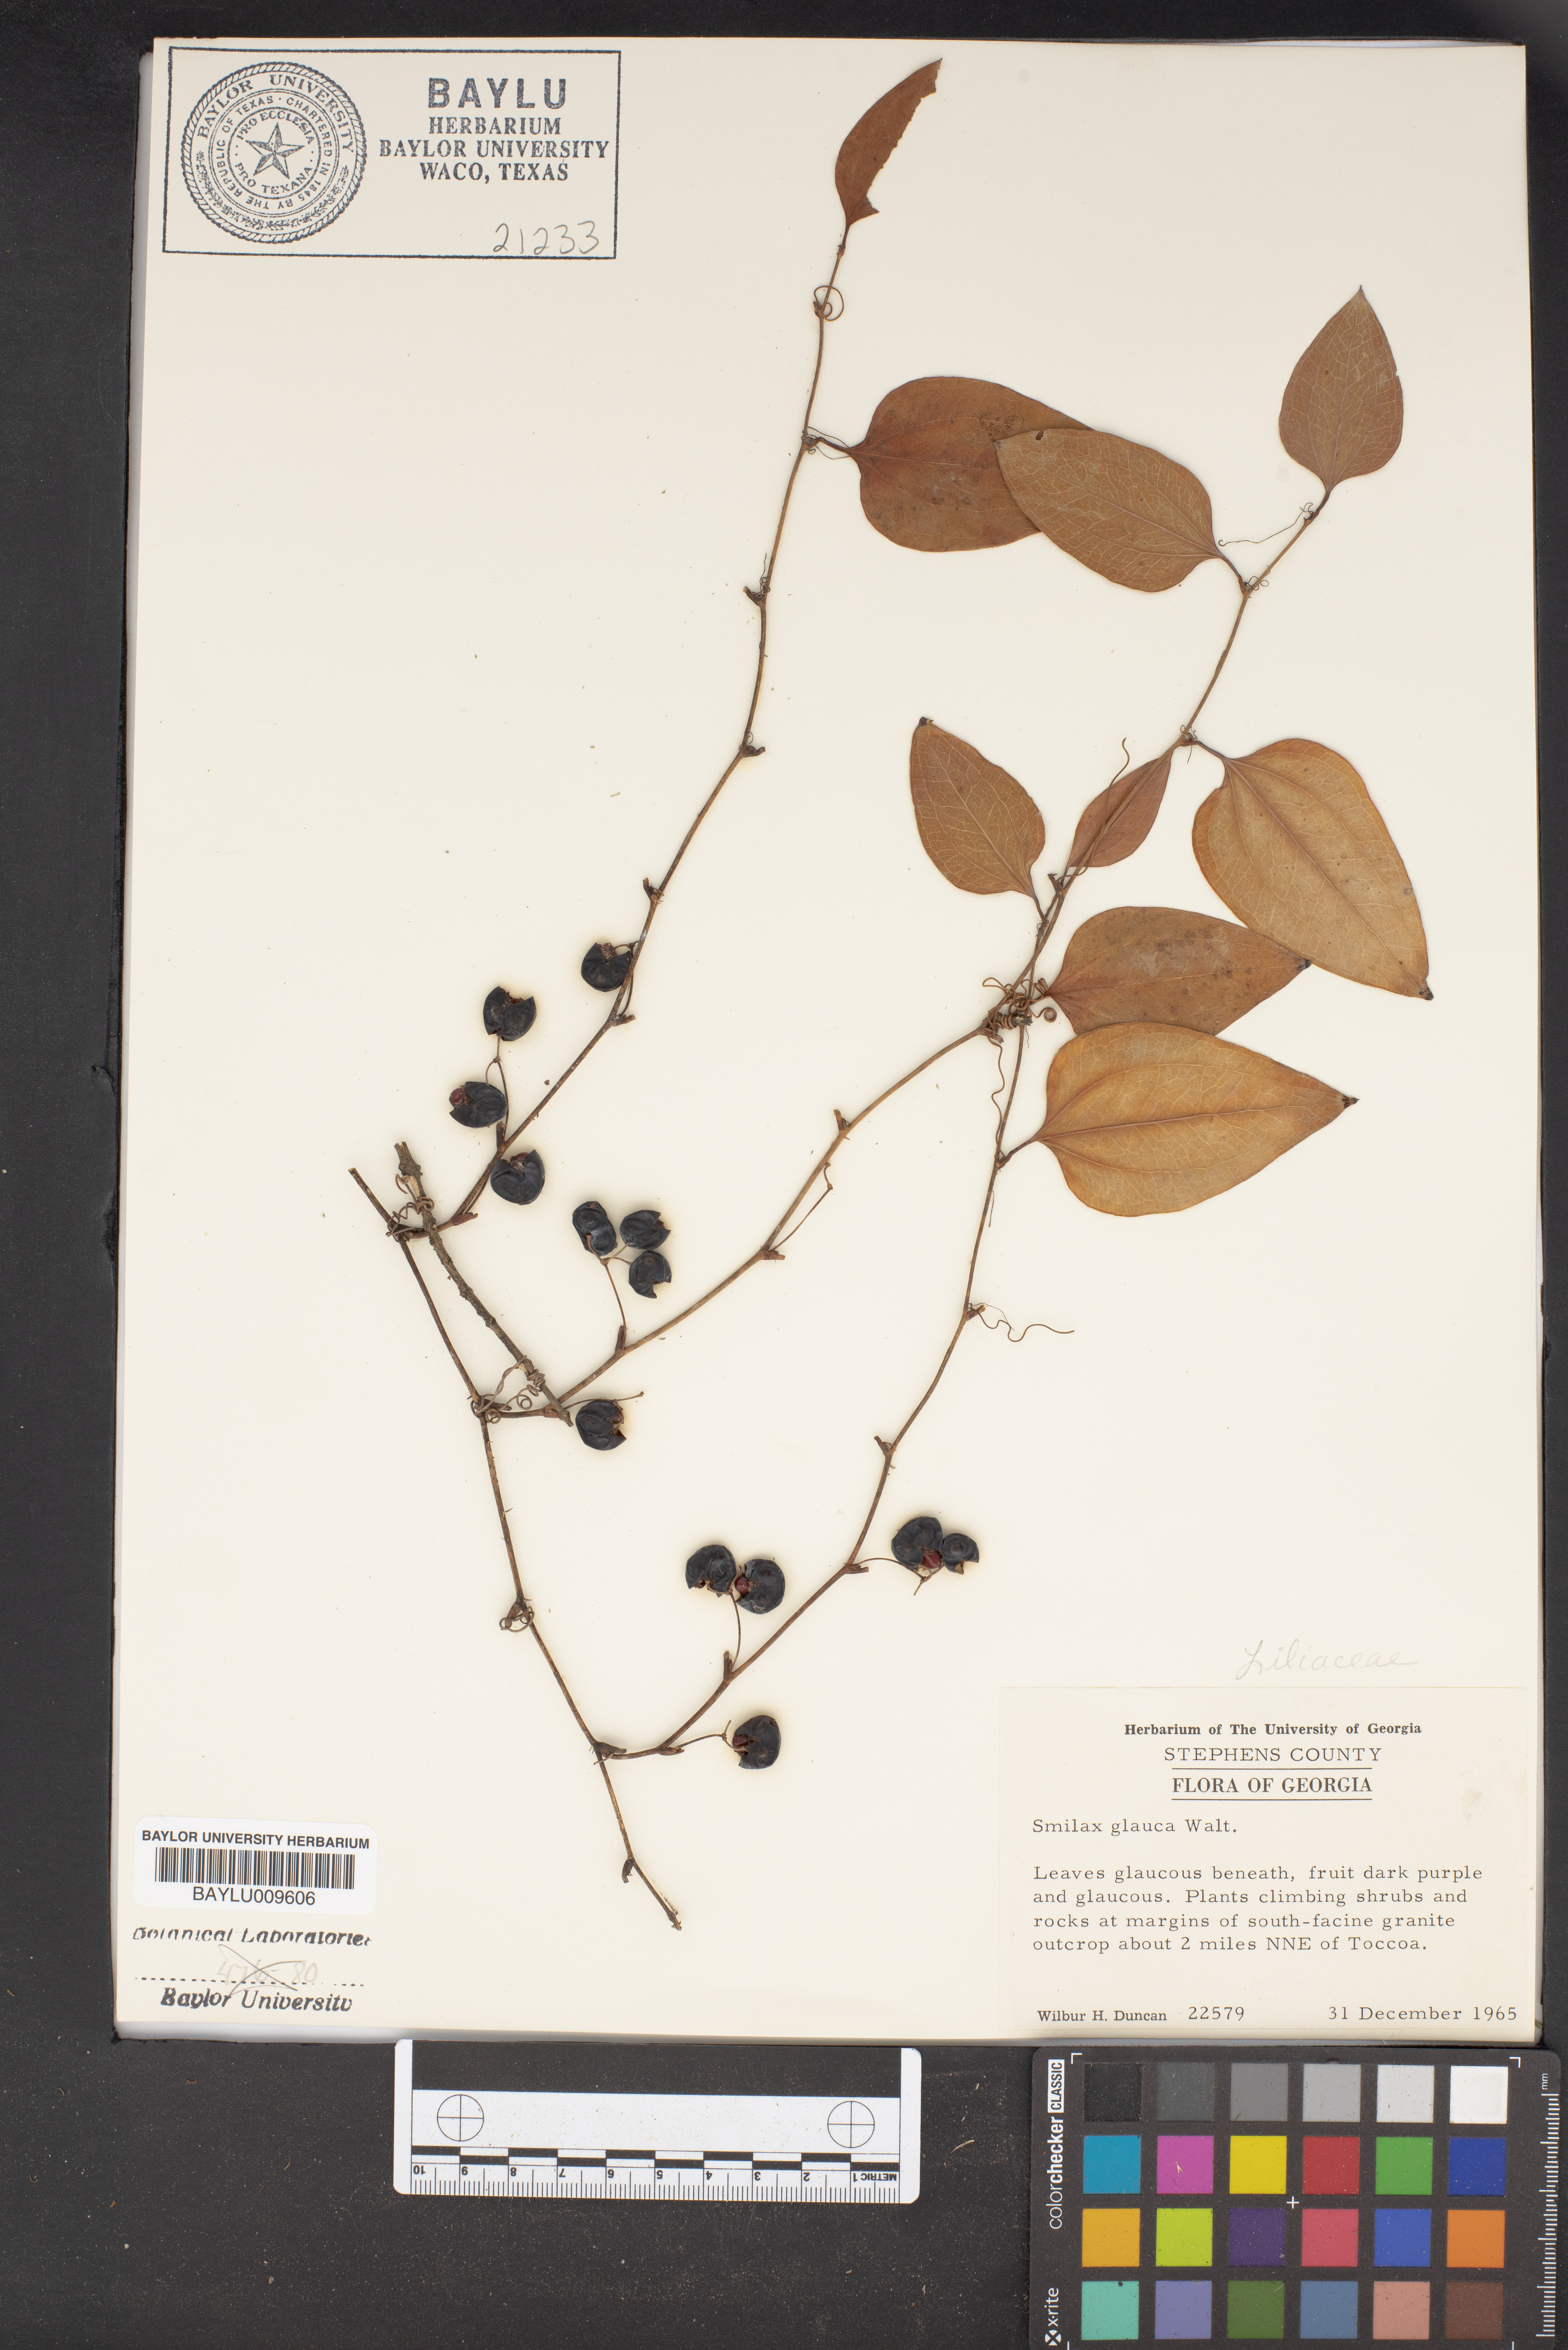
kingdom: Plantae
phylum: Tracheophyta
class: Liliopsida
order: Liliales
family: Smilacaceae
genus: Smilax
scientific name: Smilax glauca
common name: Cat greenbrier
